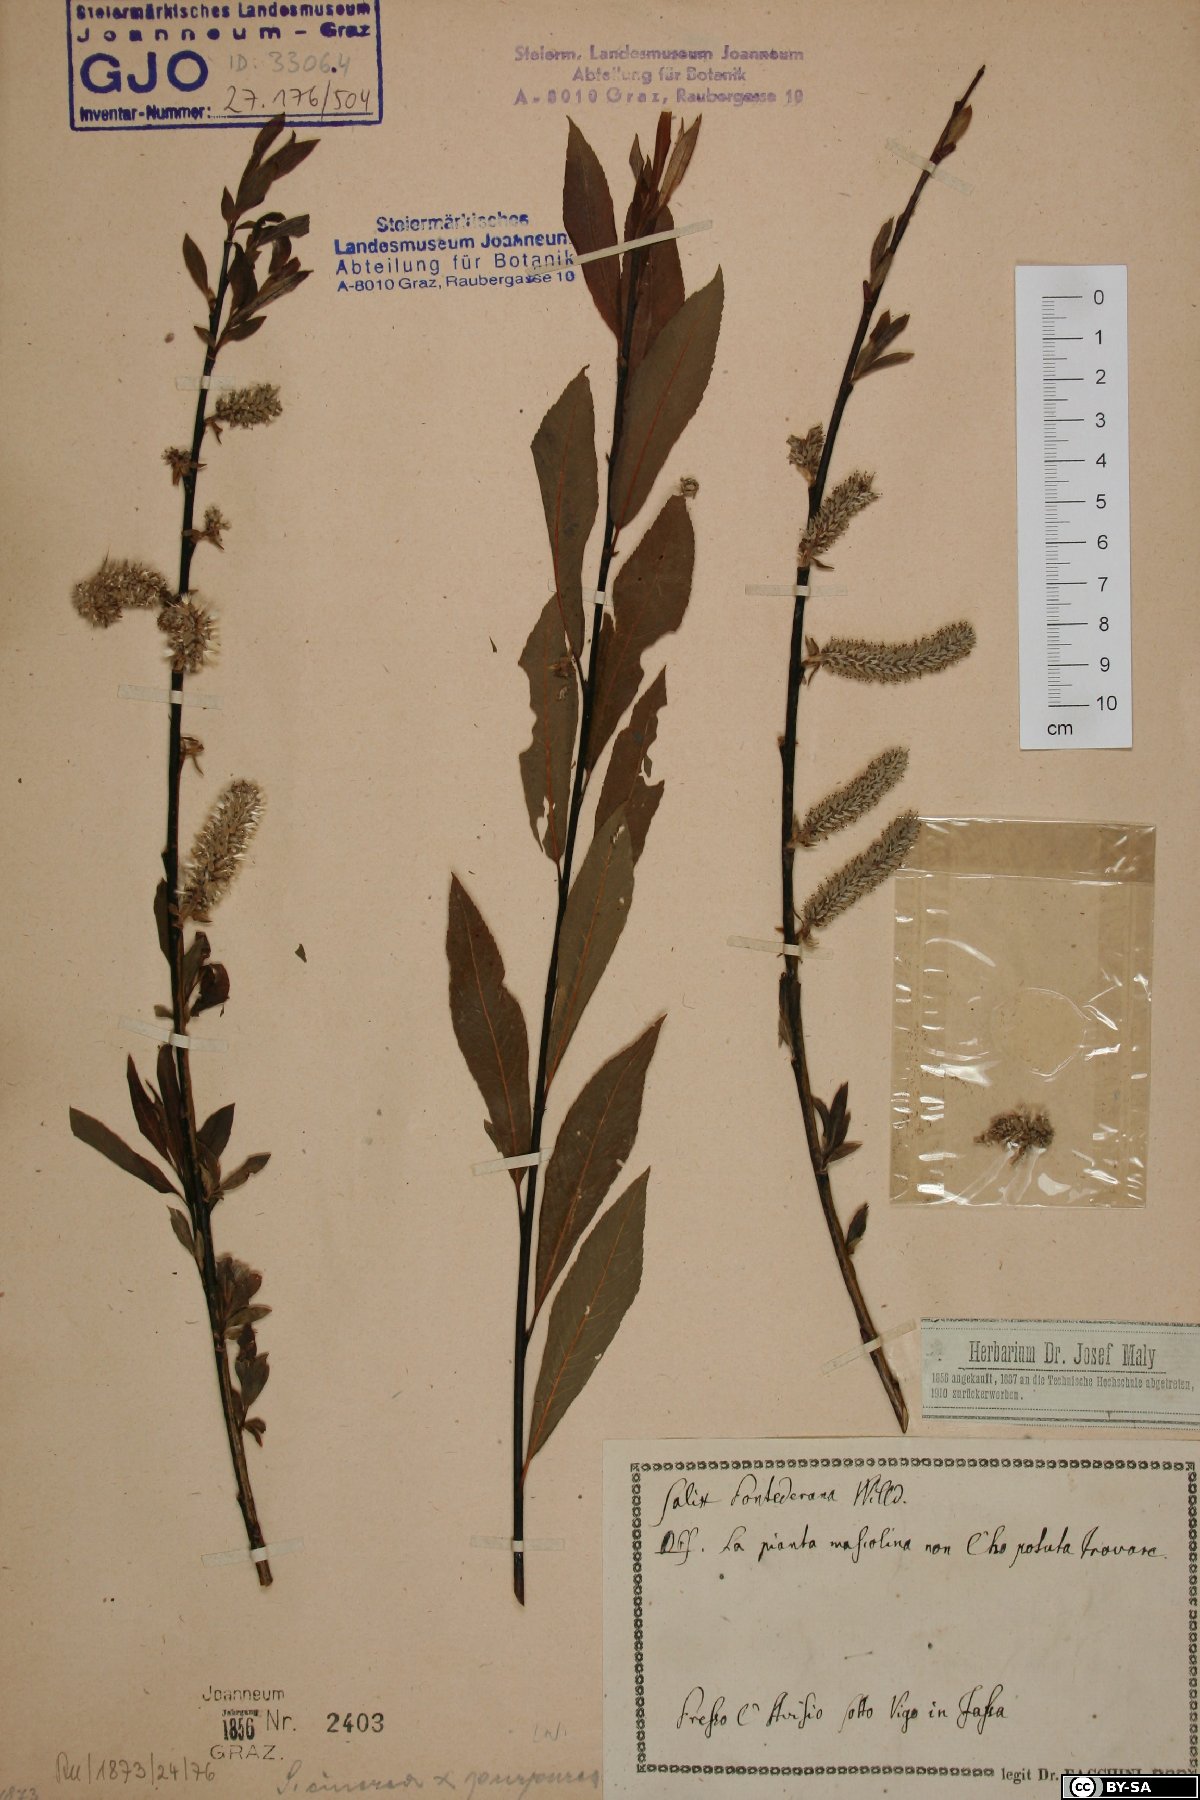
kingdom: Plantae
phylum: Tracheophyta
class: Magnoliopsida
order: Malpighiales
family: Salicaceae
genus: Salix
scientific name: Salix pontederana
